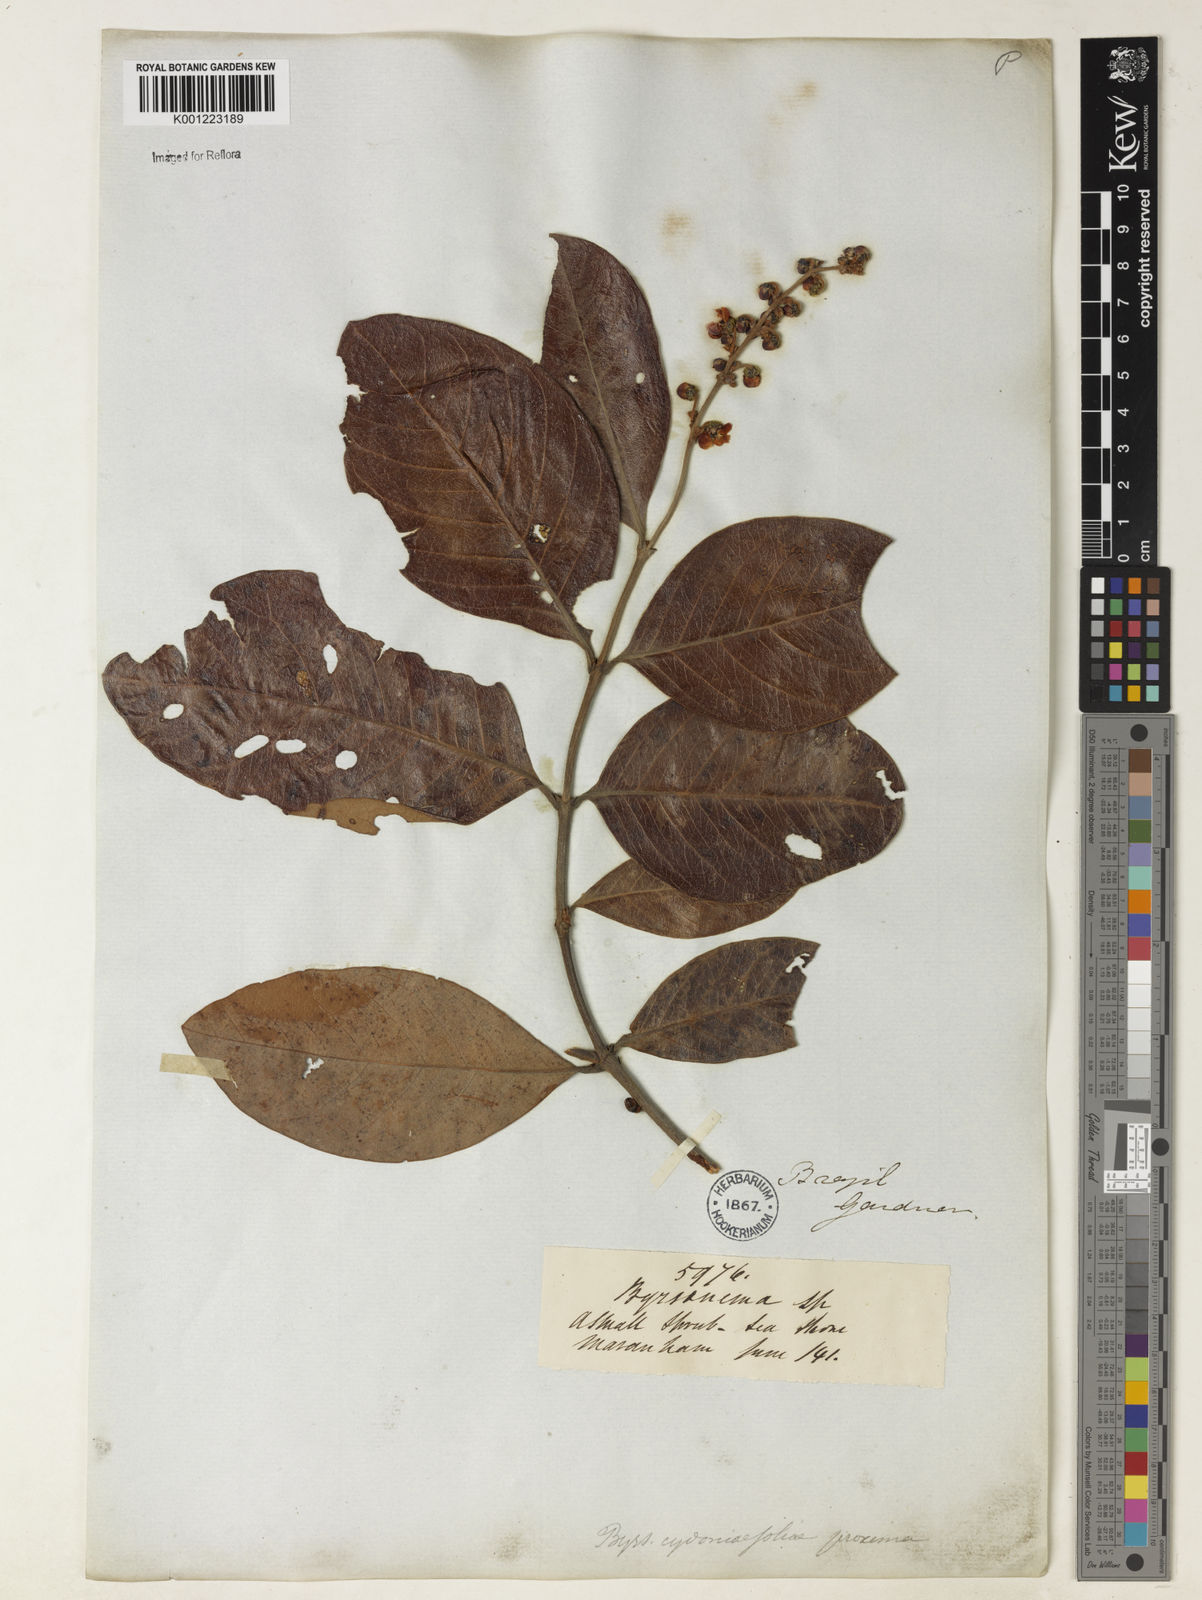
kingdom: Plantae
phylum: Tracheophyta
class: Magnoliopsida
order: Malpighiales
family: Malpighiaceae
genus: Byrsonima
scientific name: Byrsonima
